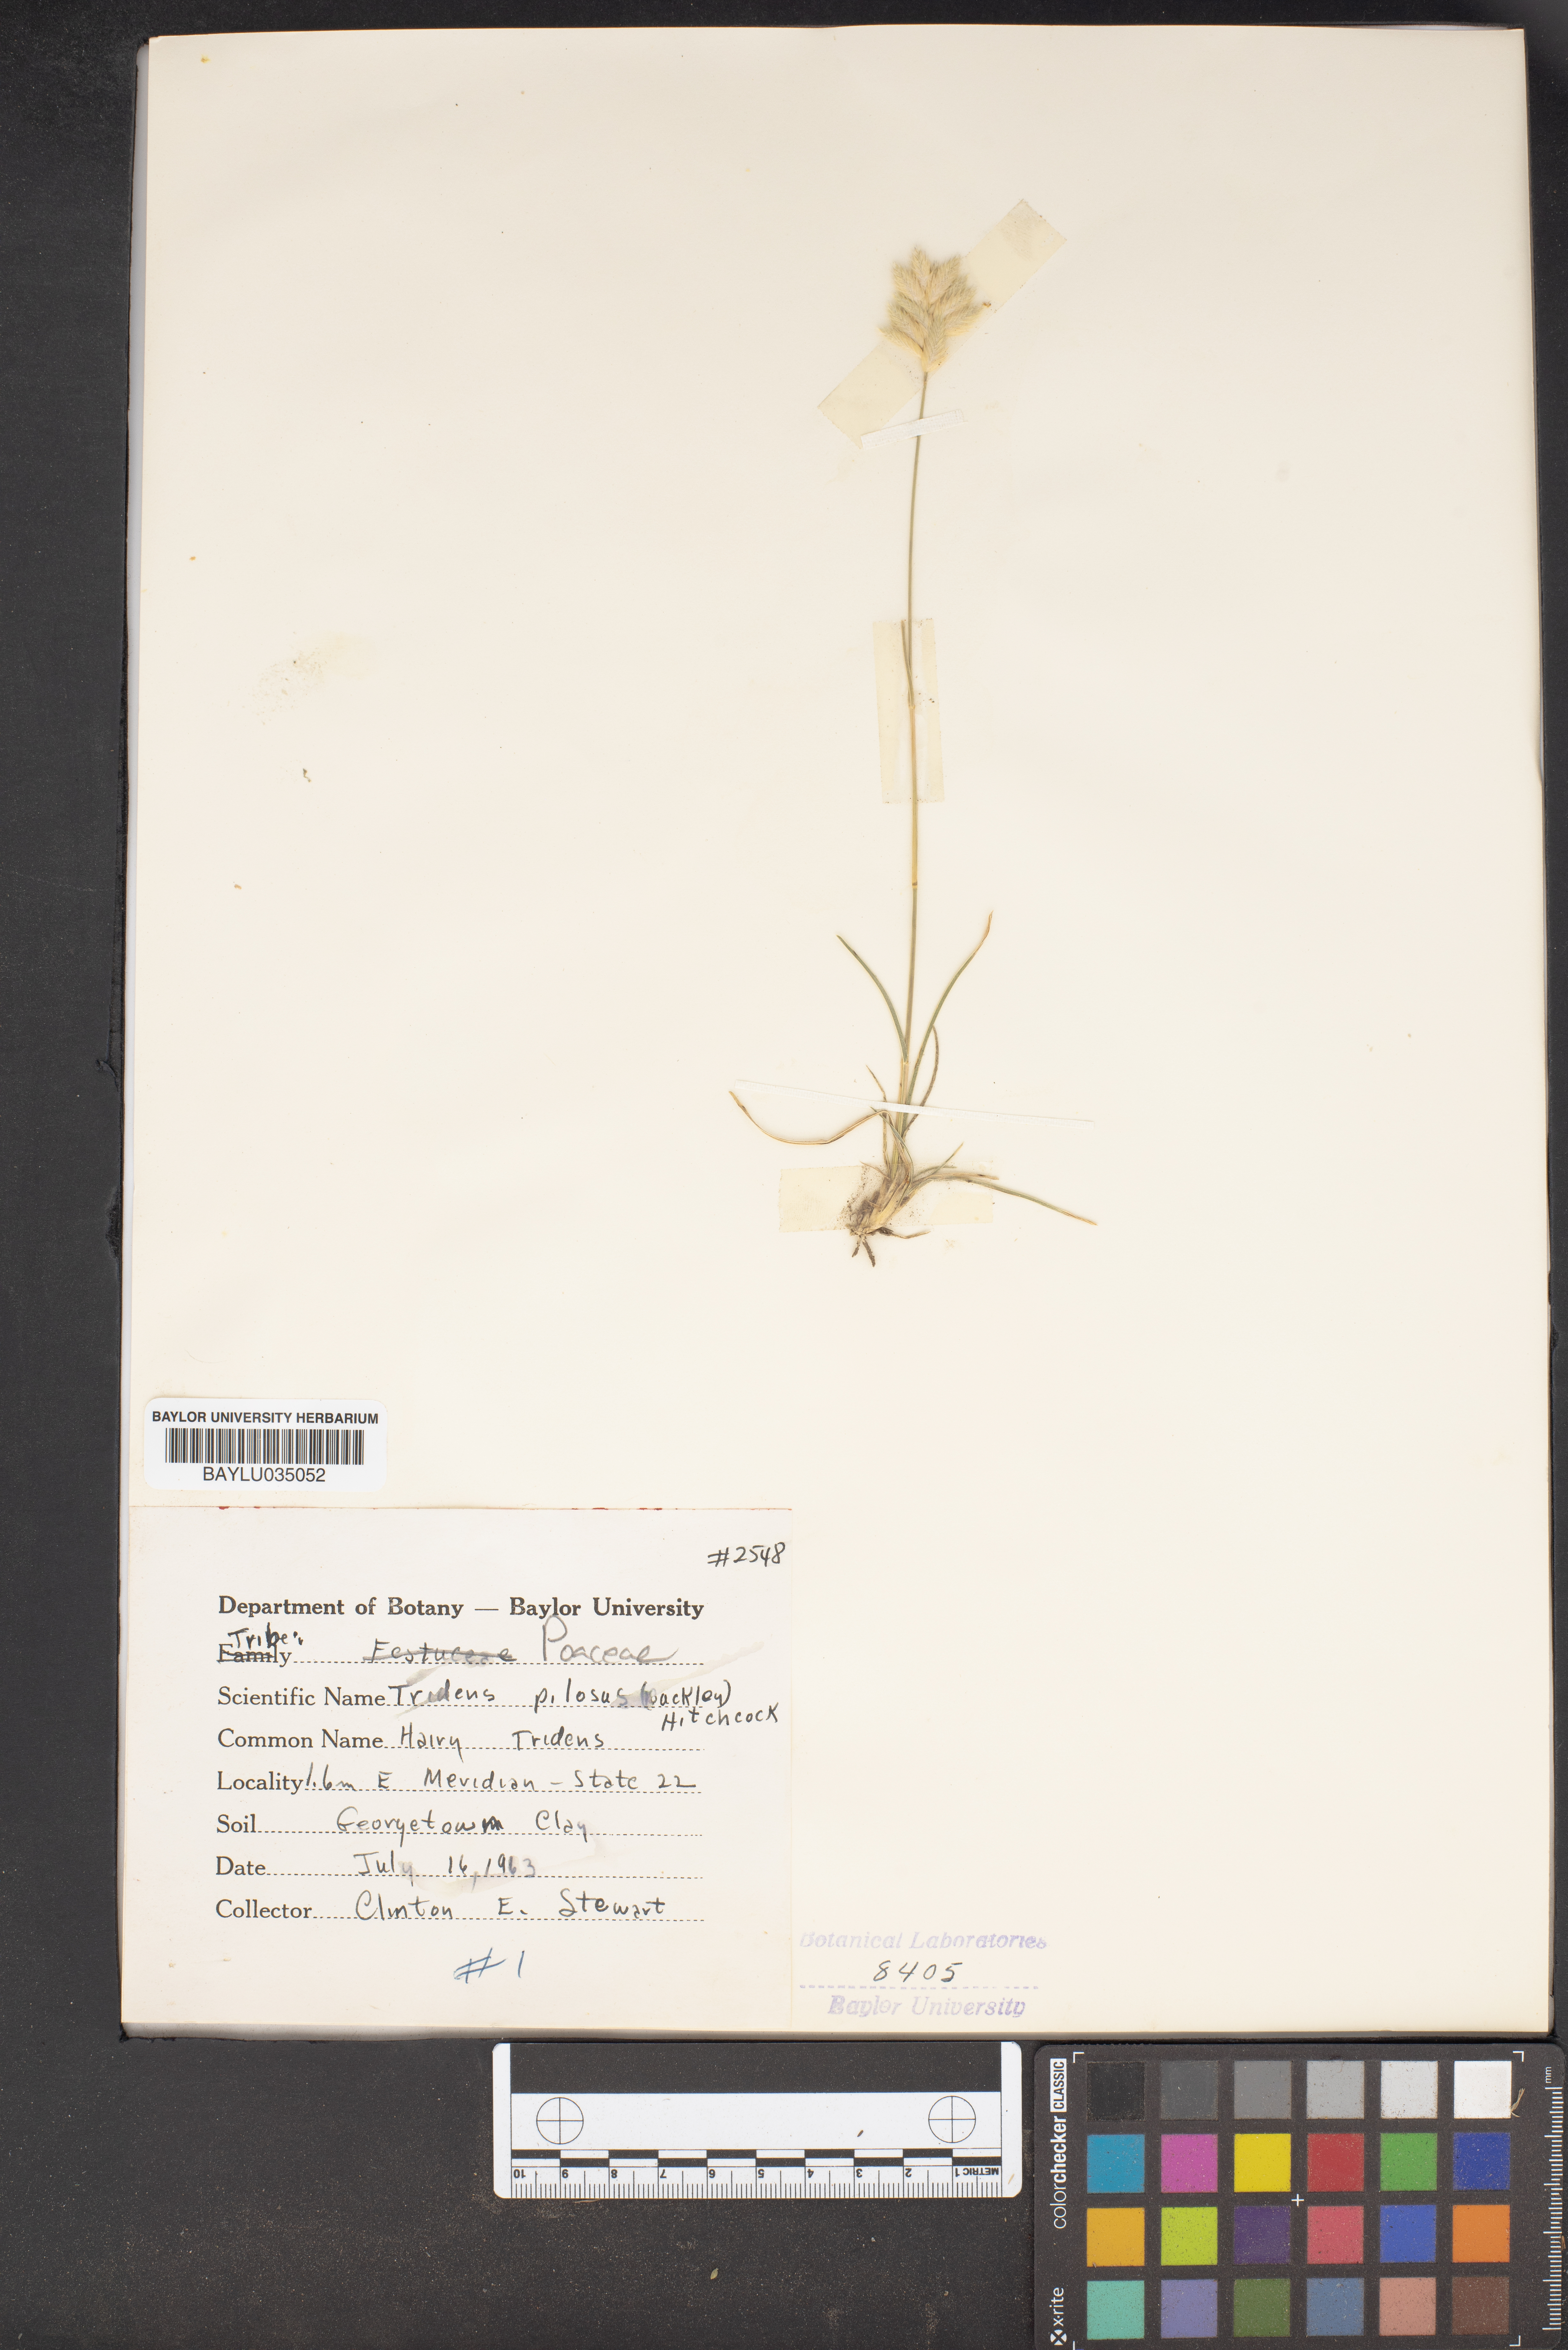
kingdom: Plantae
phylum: Tracheophyta
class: Liliopsida
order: Poales
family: Poaceae
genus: Tridentopsis
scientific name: Tridentopsis mutica
